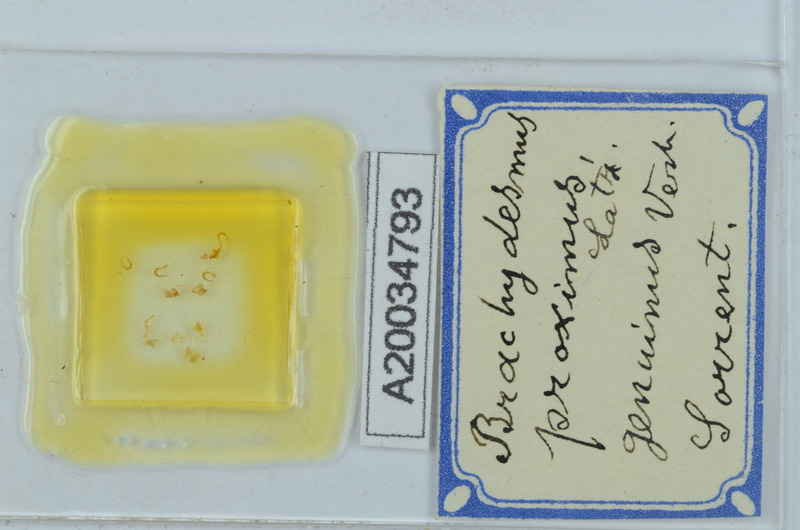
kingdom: Animalia
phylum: Arthropoda
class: Diplopoda
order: Polydesmida
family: Polydesmidae
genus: Brachydesmus
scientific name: Brachydesmus proximus
